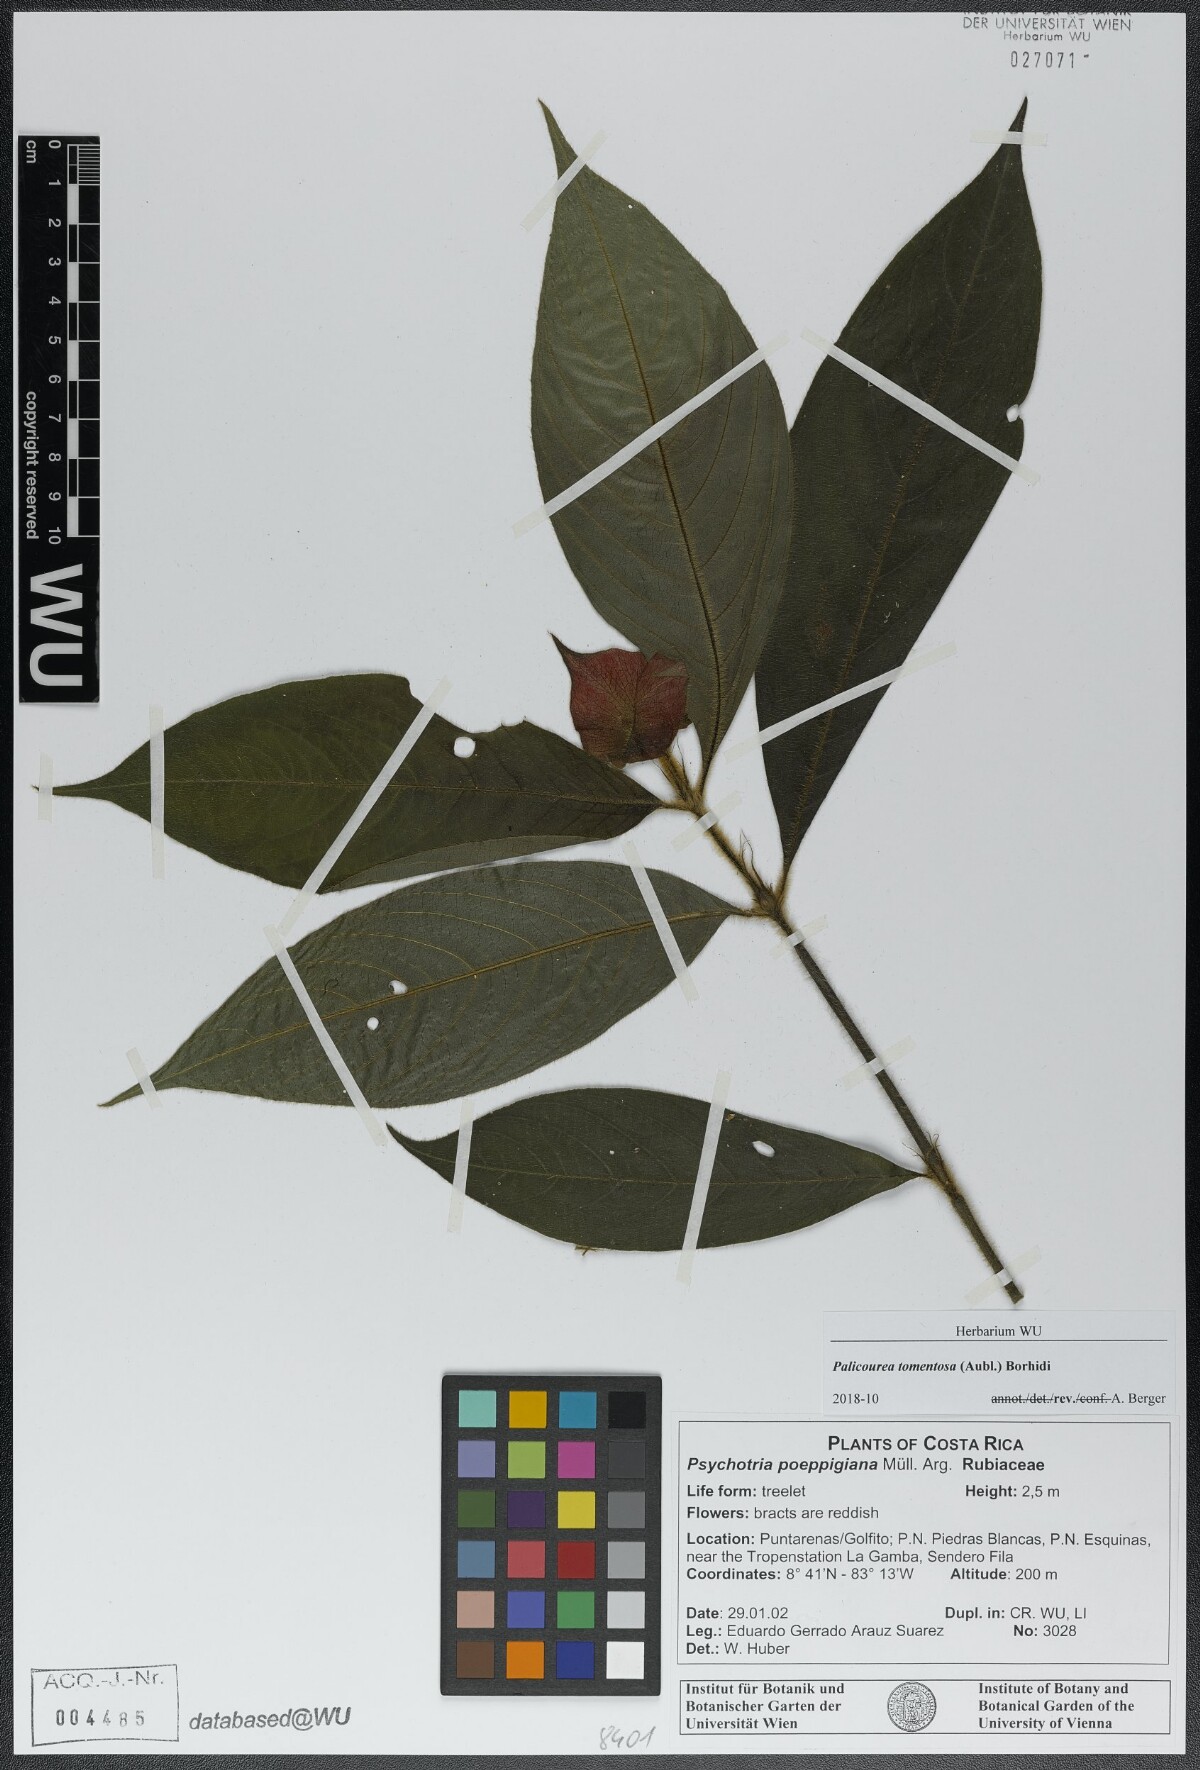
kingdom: Plantae
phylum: Tracheophyta
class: Magnoliopsida
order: Gentianales
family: Rubiaceae
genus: Palicourea
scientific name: Palicourea tomentosa
